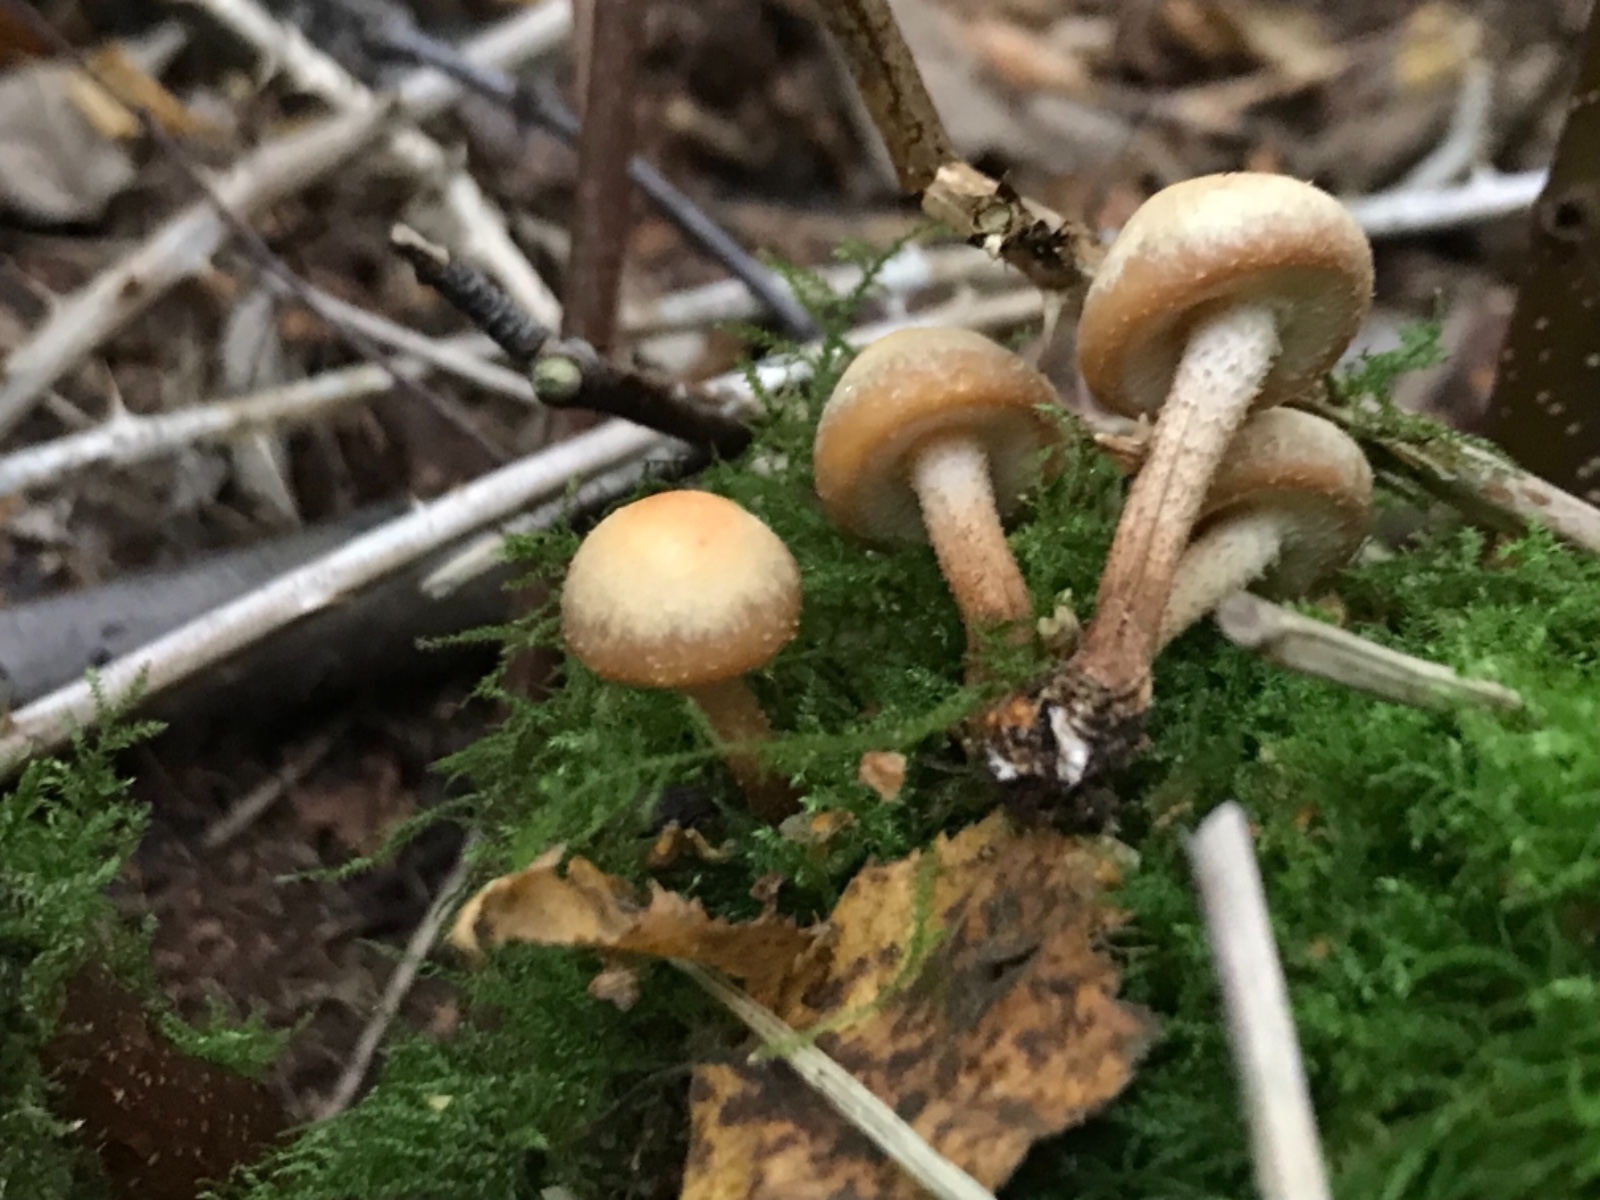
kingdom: Fungi
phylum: Basidiomycota
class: Agaricomycetes
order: Agaricales
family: Strophariaceae
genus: Kuehneromyces
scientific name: Kuehneromyces mutabilis
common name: foranderlig skælhat
